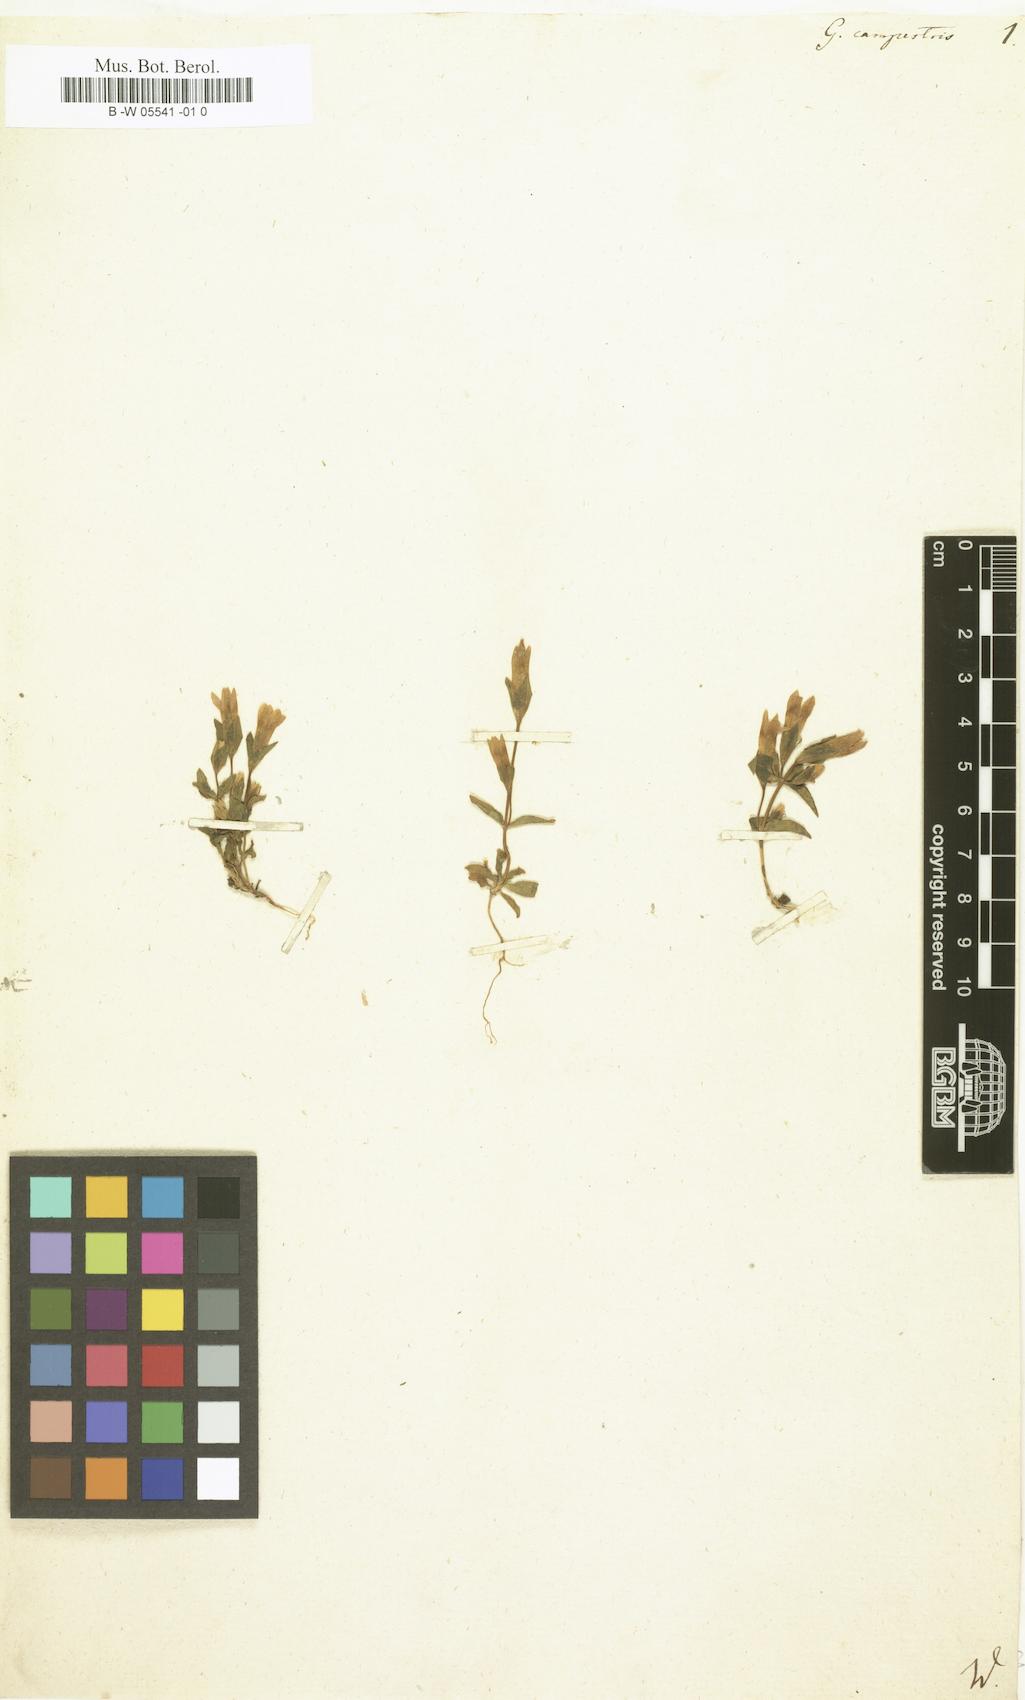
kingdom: Plantae
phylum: Tracheophyta
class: Magnoliopsida
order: Gentianales
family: Gentianaceae
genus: Gentianella
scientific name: Gentianella
